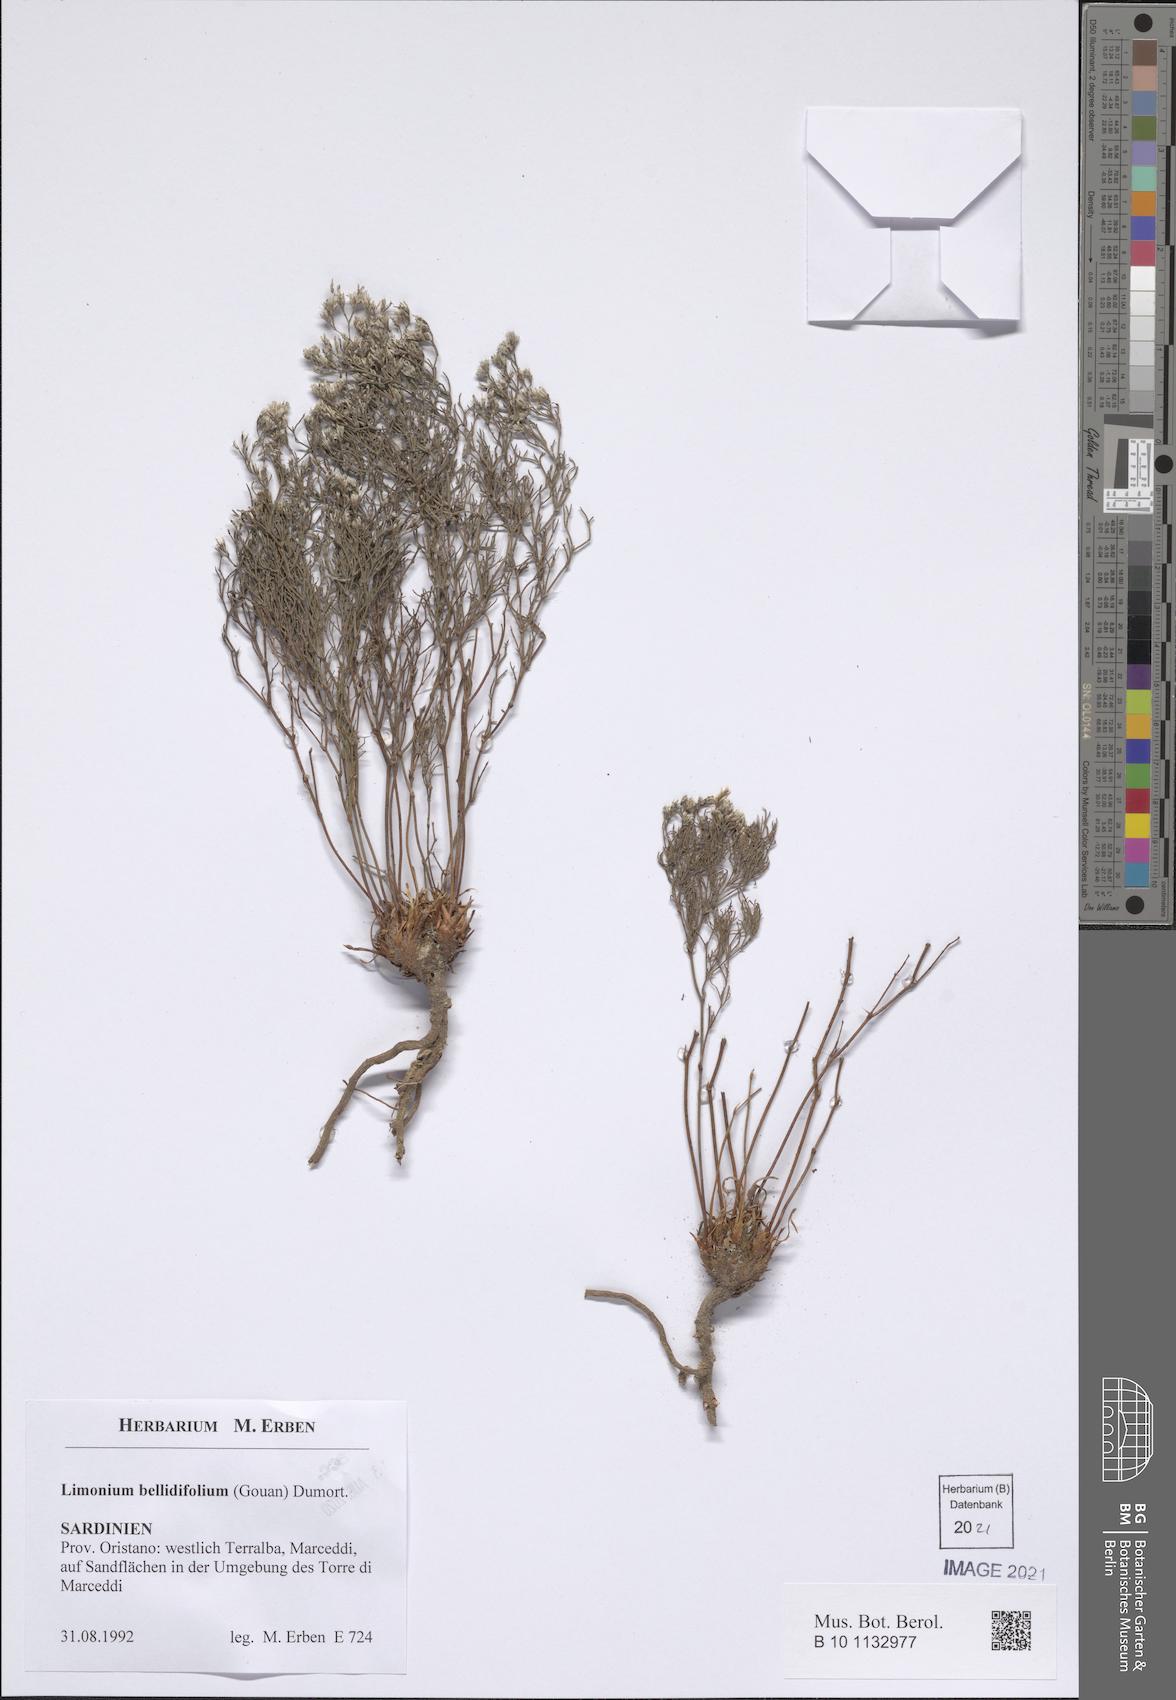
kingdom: Plantae
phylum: Tracheophyta
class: Magnoliopsida
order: Caryophyllales
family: Plumbaginaceae
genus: Limonium
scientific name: Limonium bellidifolium
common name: Matted sea-lavender
